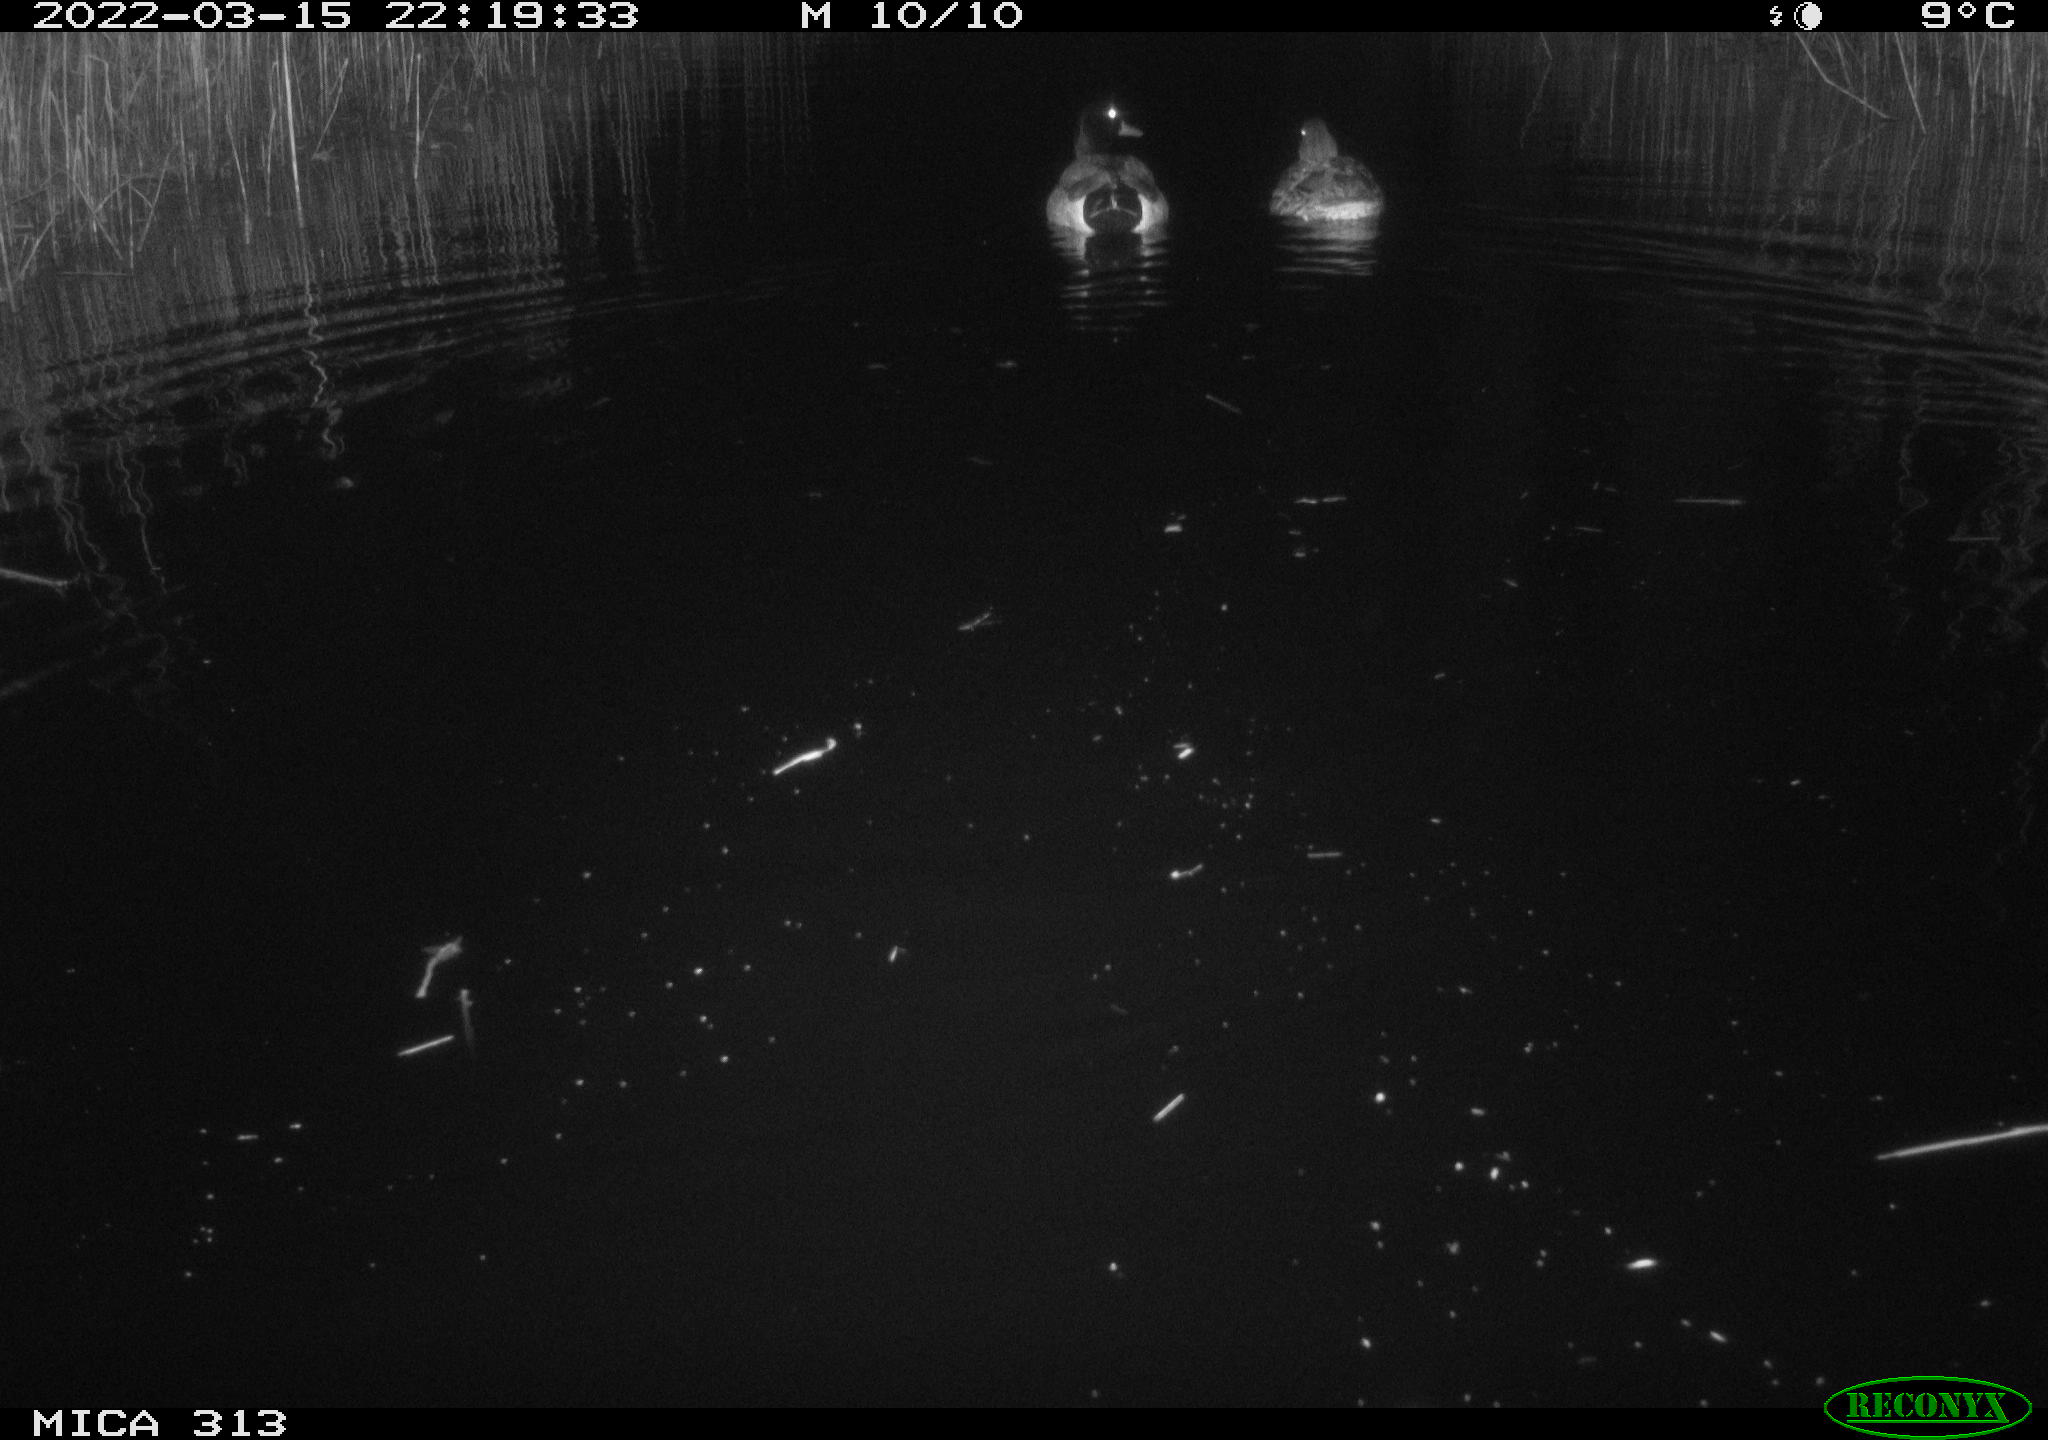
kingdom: Animalia
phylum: Chordata
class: Aves
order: Anseriformes
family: Anatidae
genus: Mareca
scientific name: Mareca strepera
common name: Gadwall
